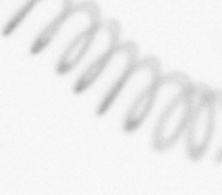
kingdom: Chromista
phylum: Ochrophyta
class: Bacillariophyceae
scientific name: Bacillariophyceae
